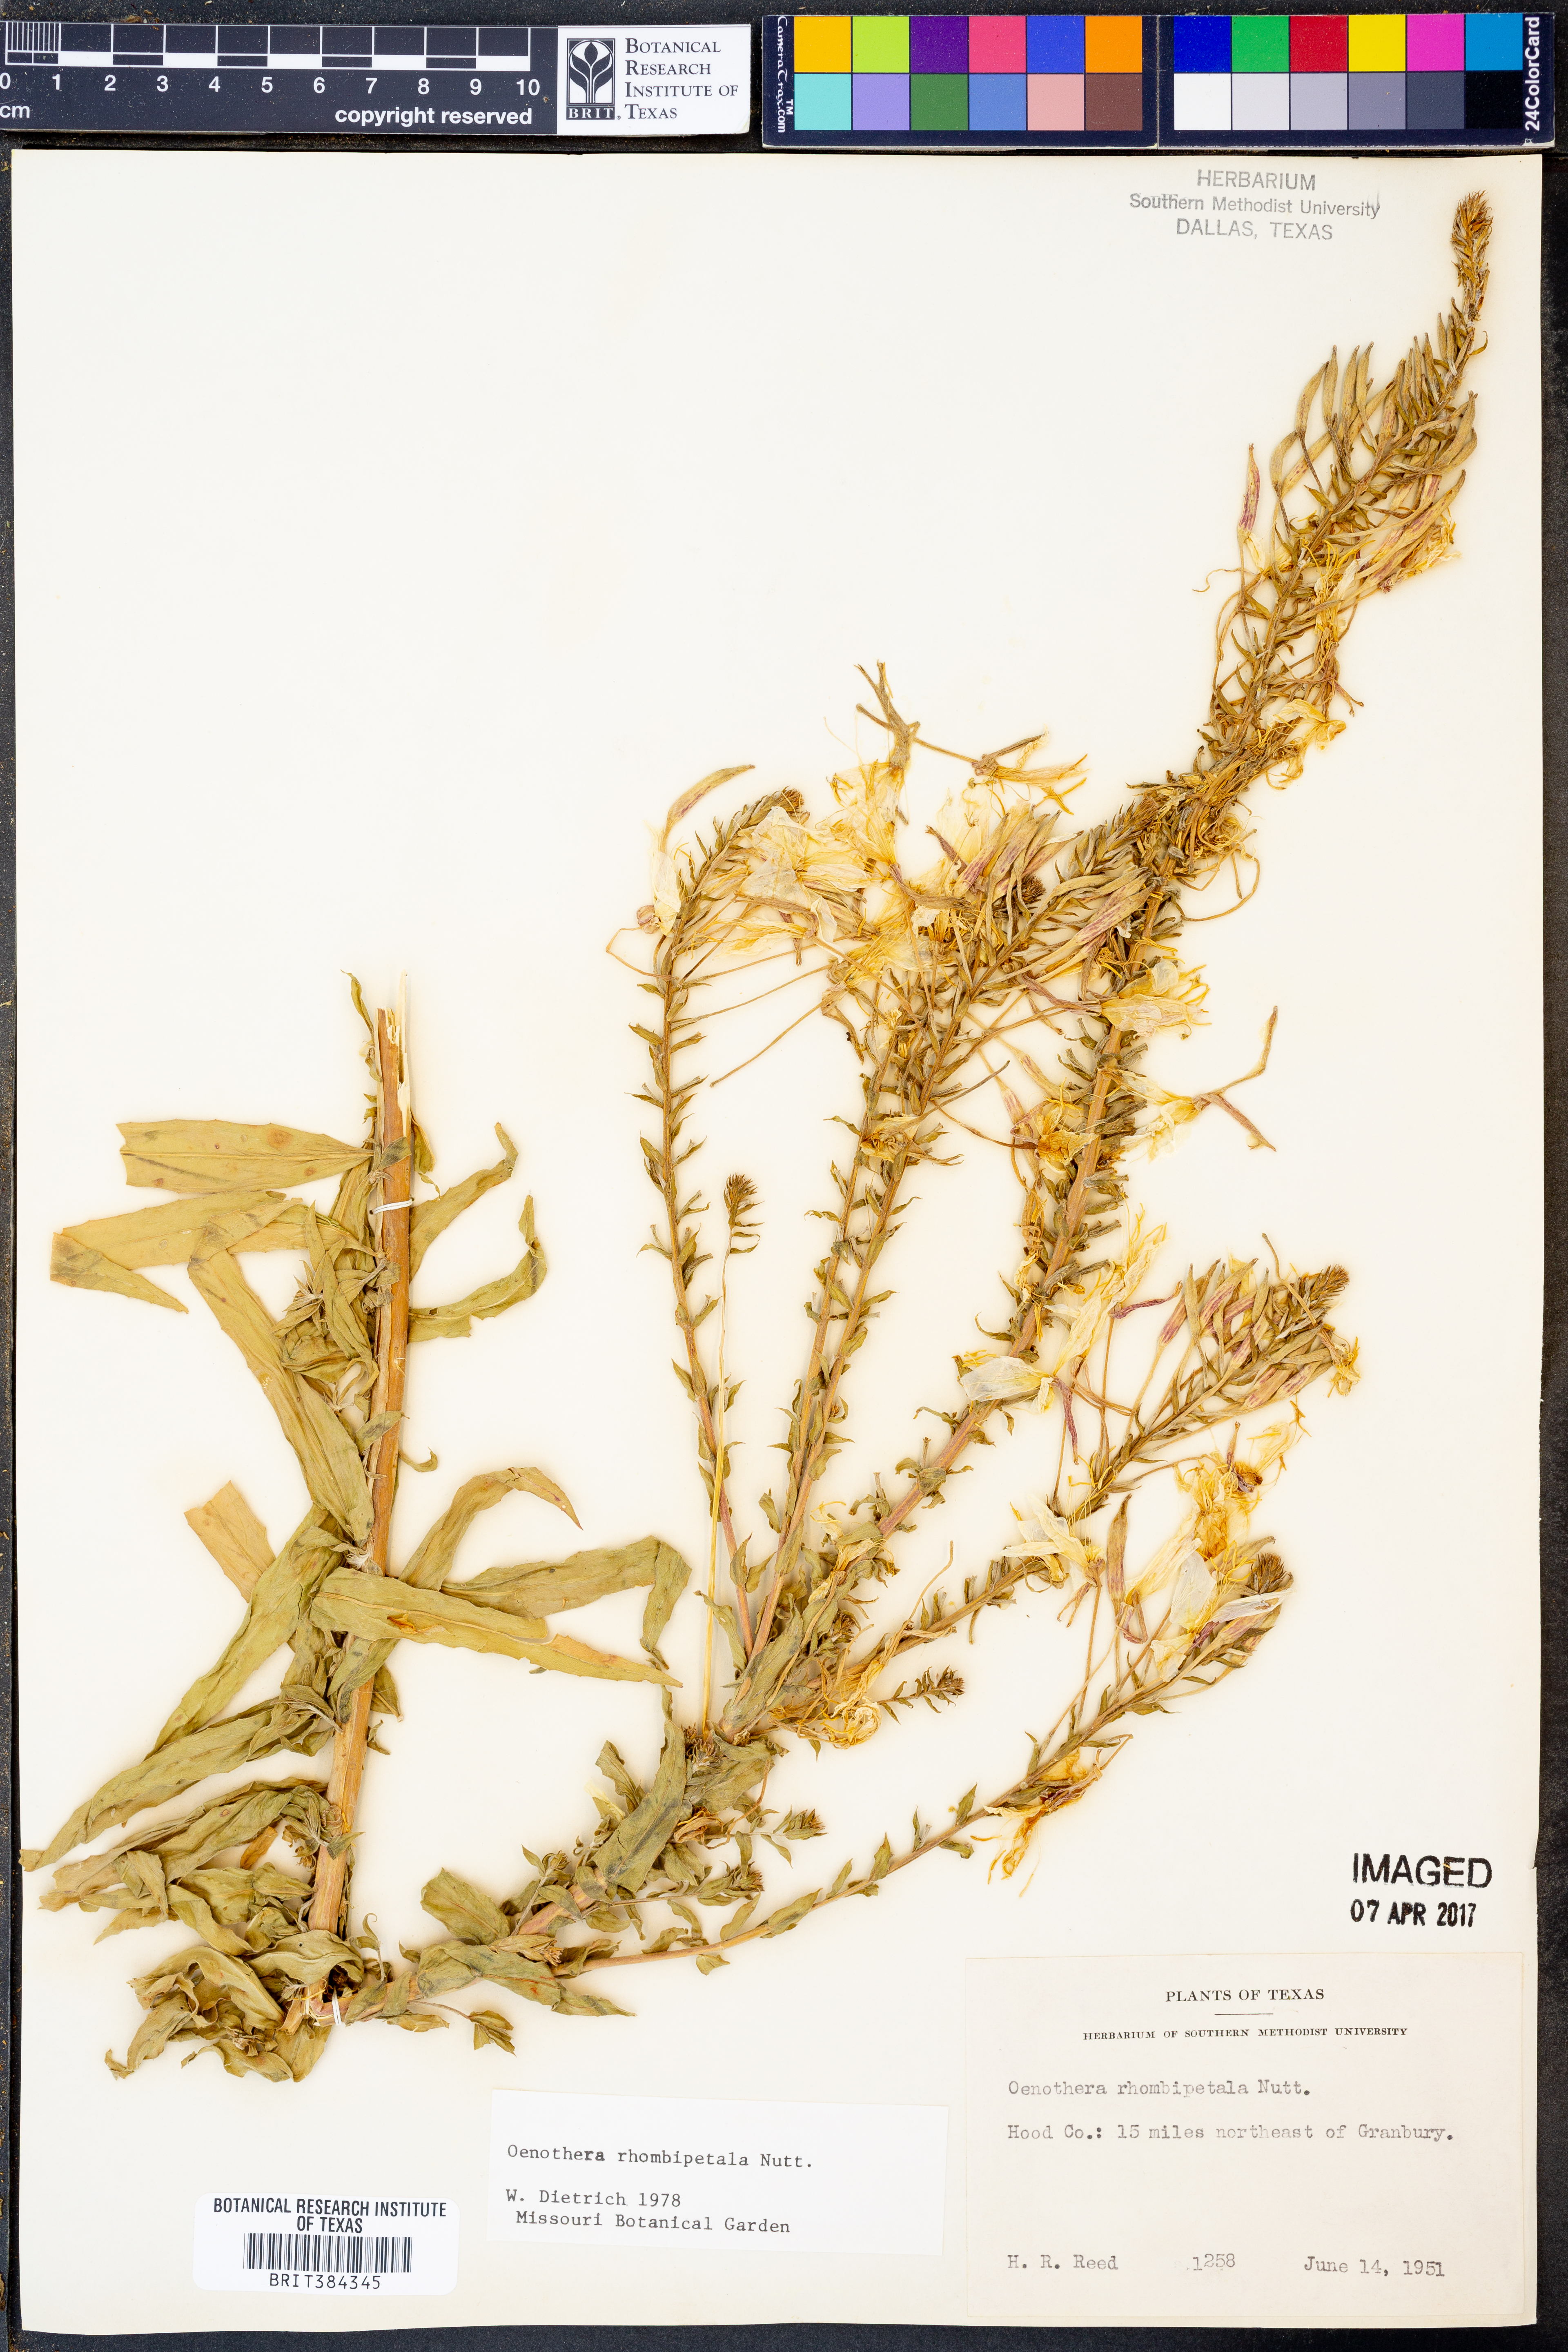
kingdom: Plantae
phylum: Tracheophyta
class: Magnoliopsida
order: Myrtales
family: Onagraceae
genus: Oenothera
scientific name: Oenothera rhombipetala
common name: Four-points evening-primrose
